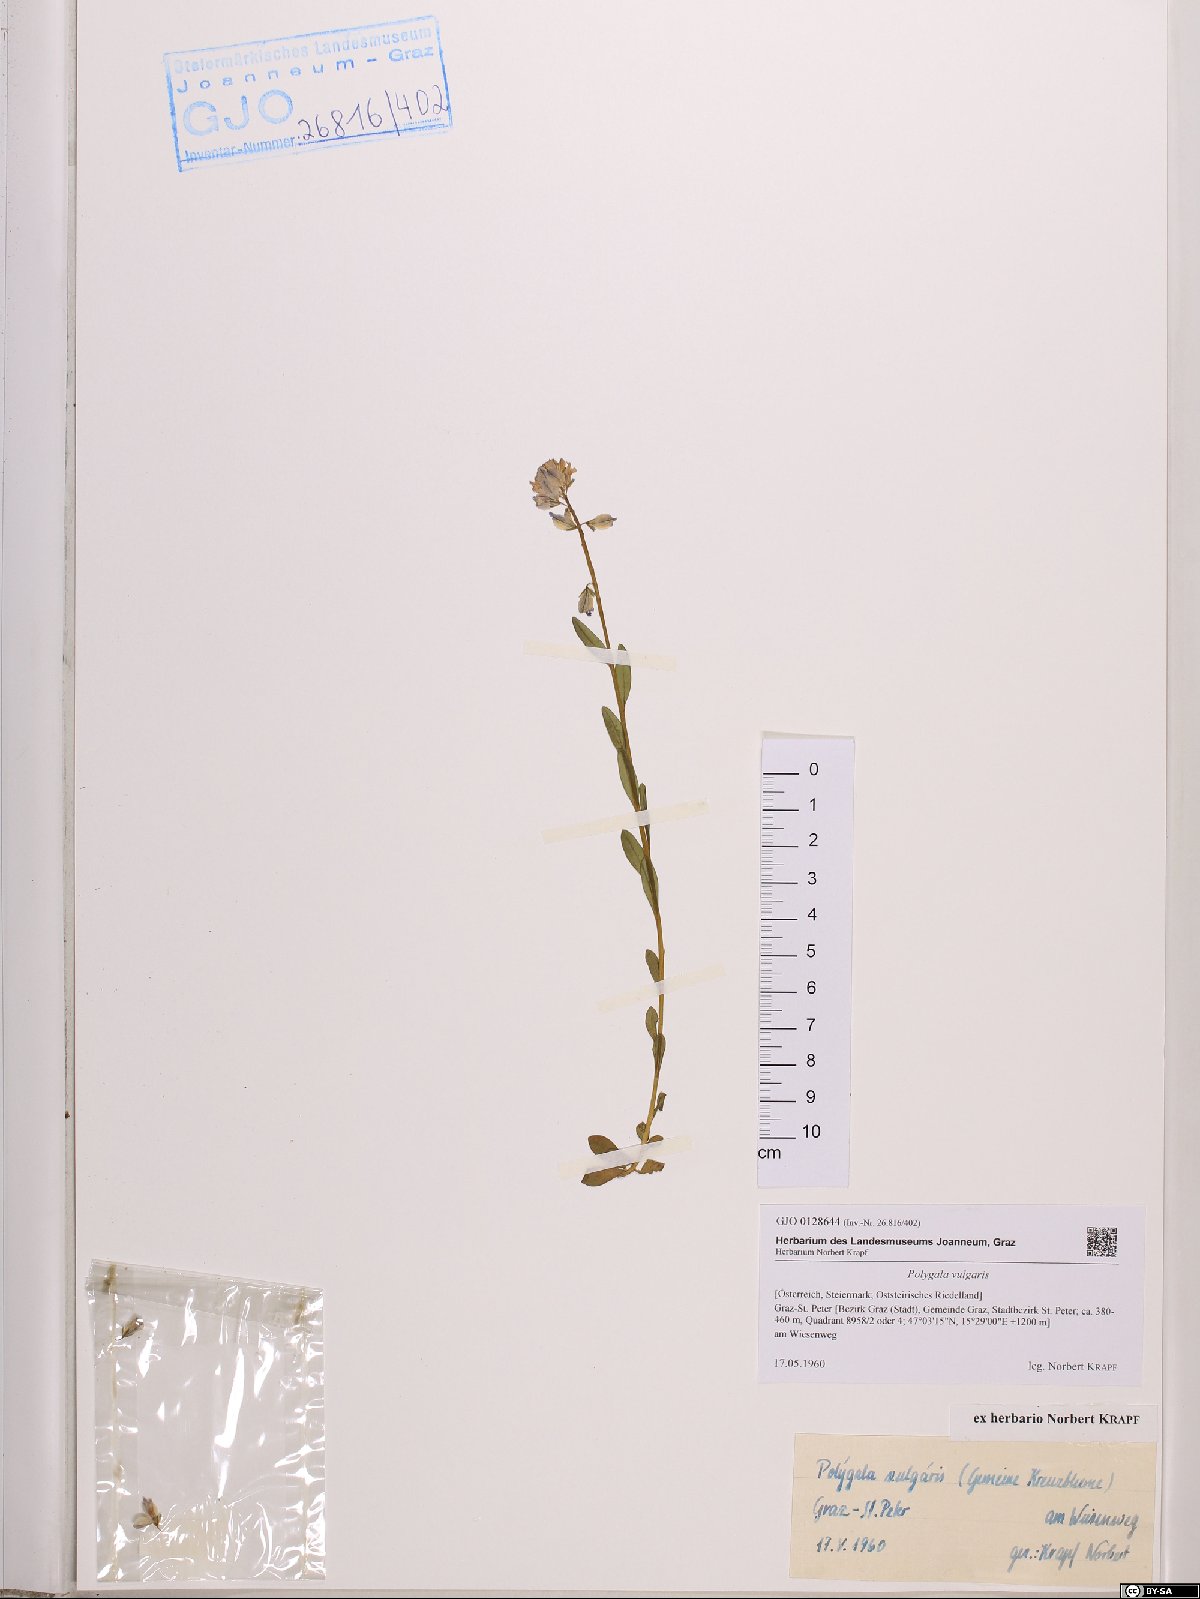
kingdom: Plantae
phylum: Tracheophyta
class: Magnoliopsida
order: Fabales
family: Polygalaceae
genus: Polygala
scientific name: Polygala vulgaris
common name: Common milkwort
